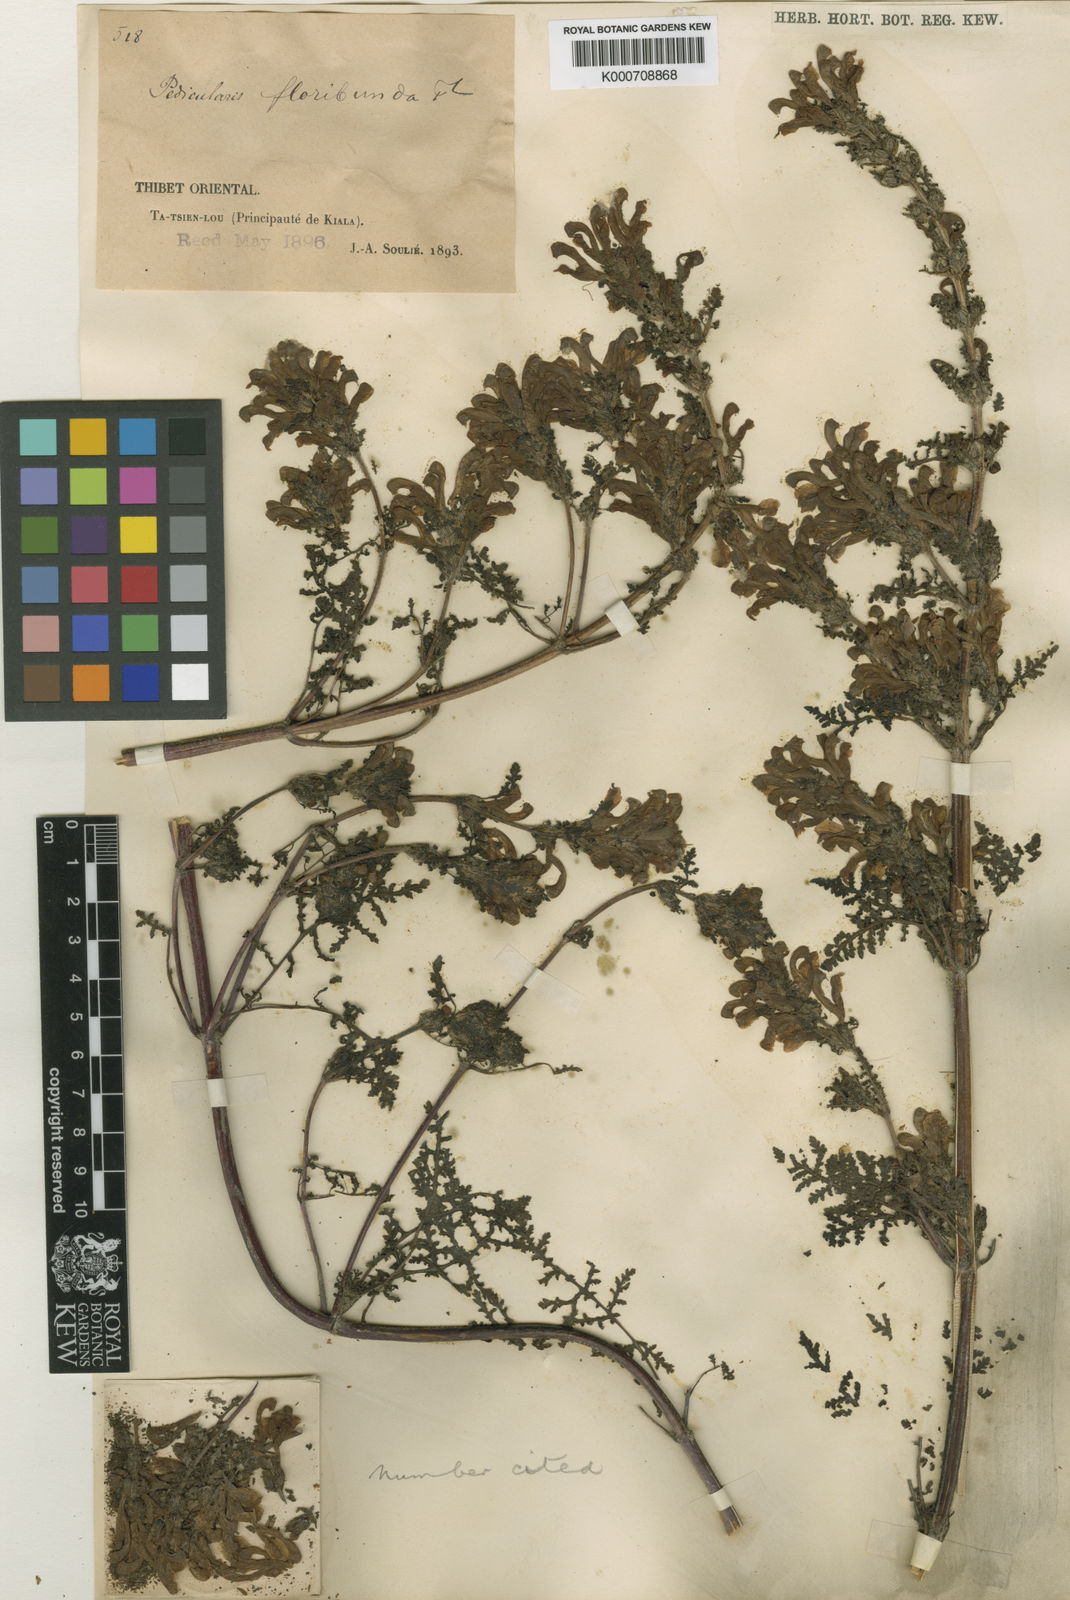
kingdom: Plantae
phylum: Tracheophyta
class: Magnoliopsida
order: Lamiales
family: Orobanchaceae
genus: Pedicularis
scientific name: Pedicularis floribunda
